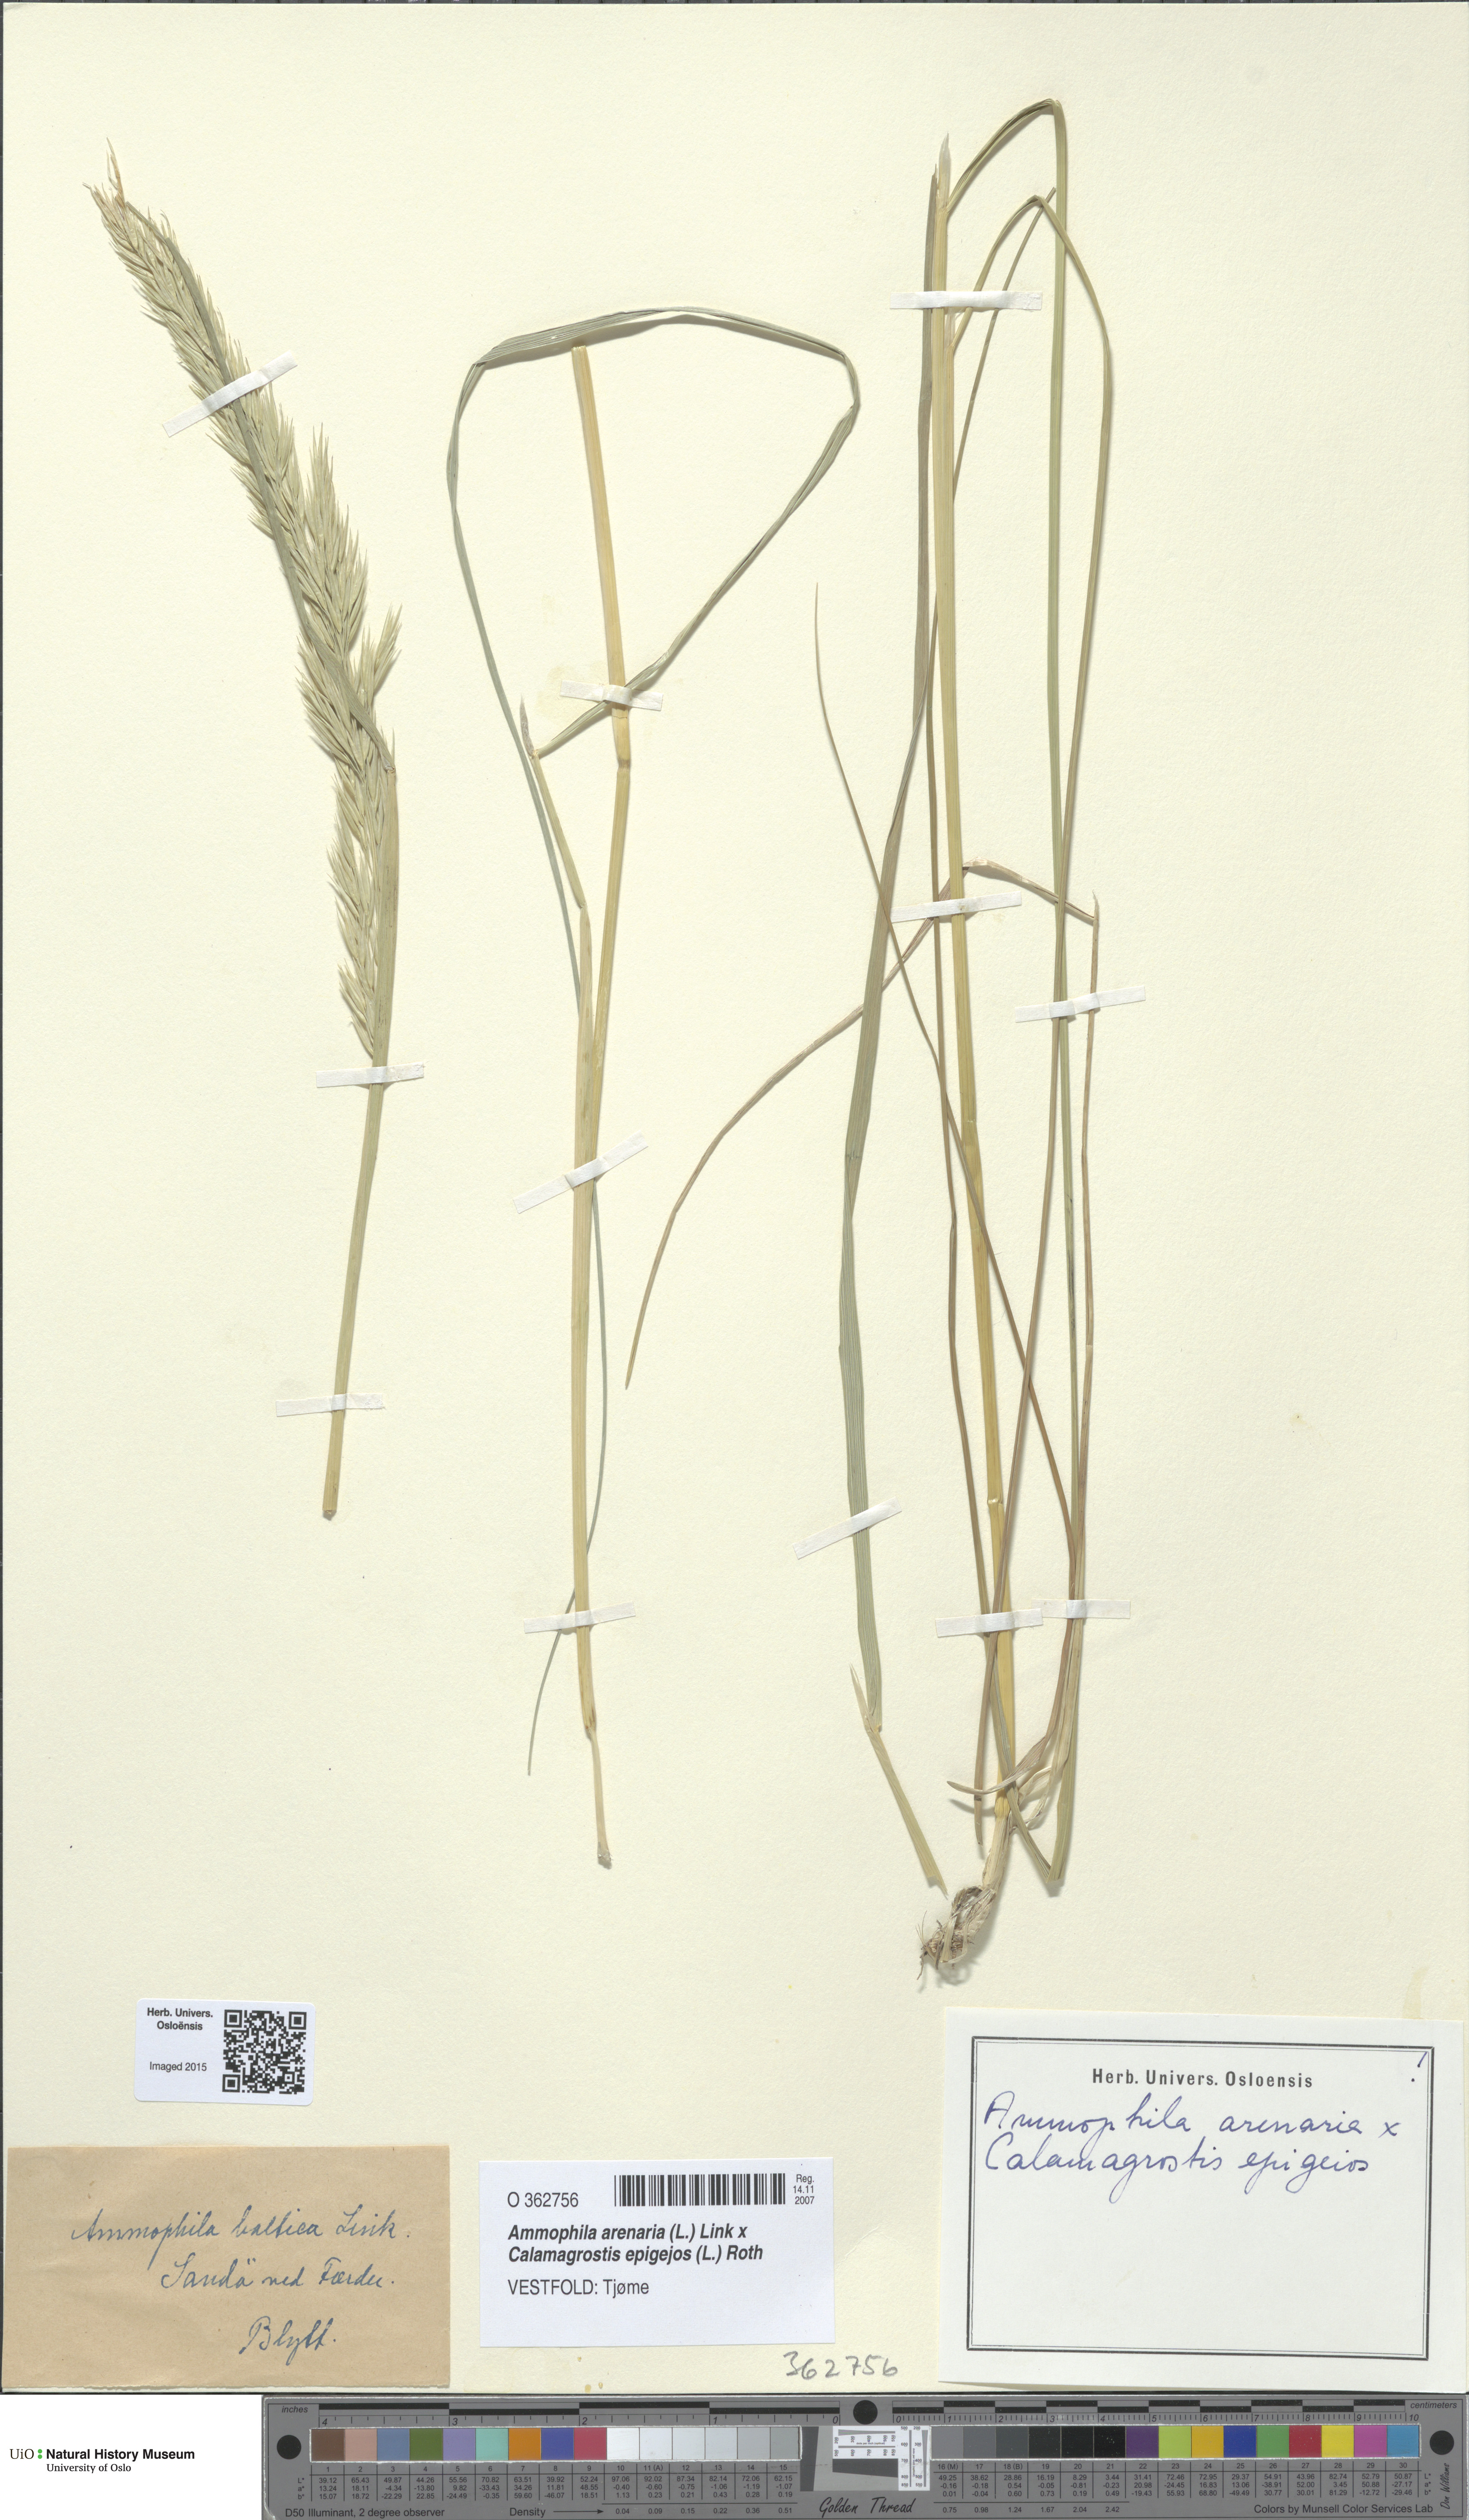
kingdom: Animalia
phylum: Arthropoda
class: Insecta
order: Hymenoptera
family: Sphecidae
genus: Ammophila
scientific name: Ammophila
